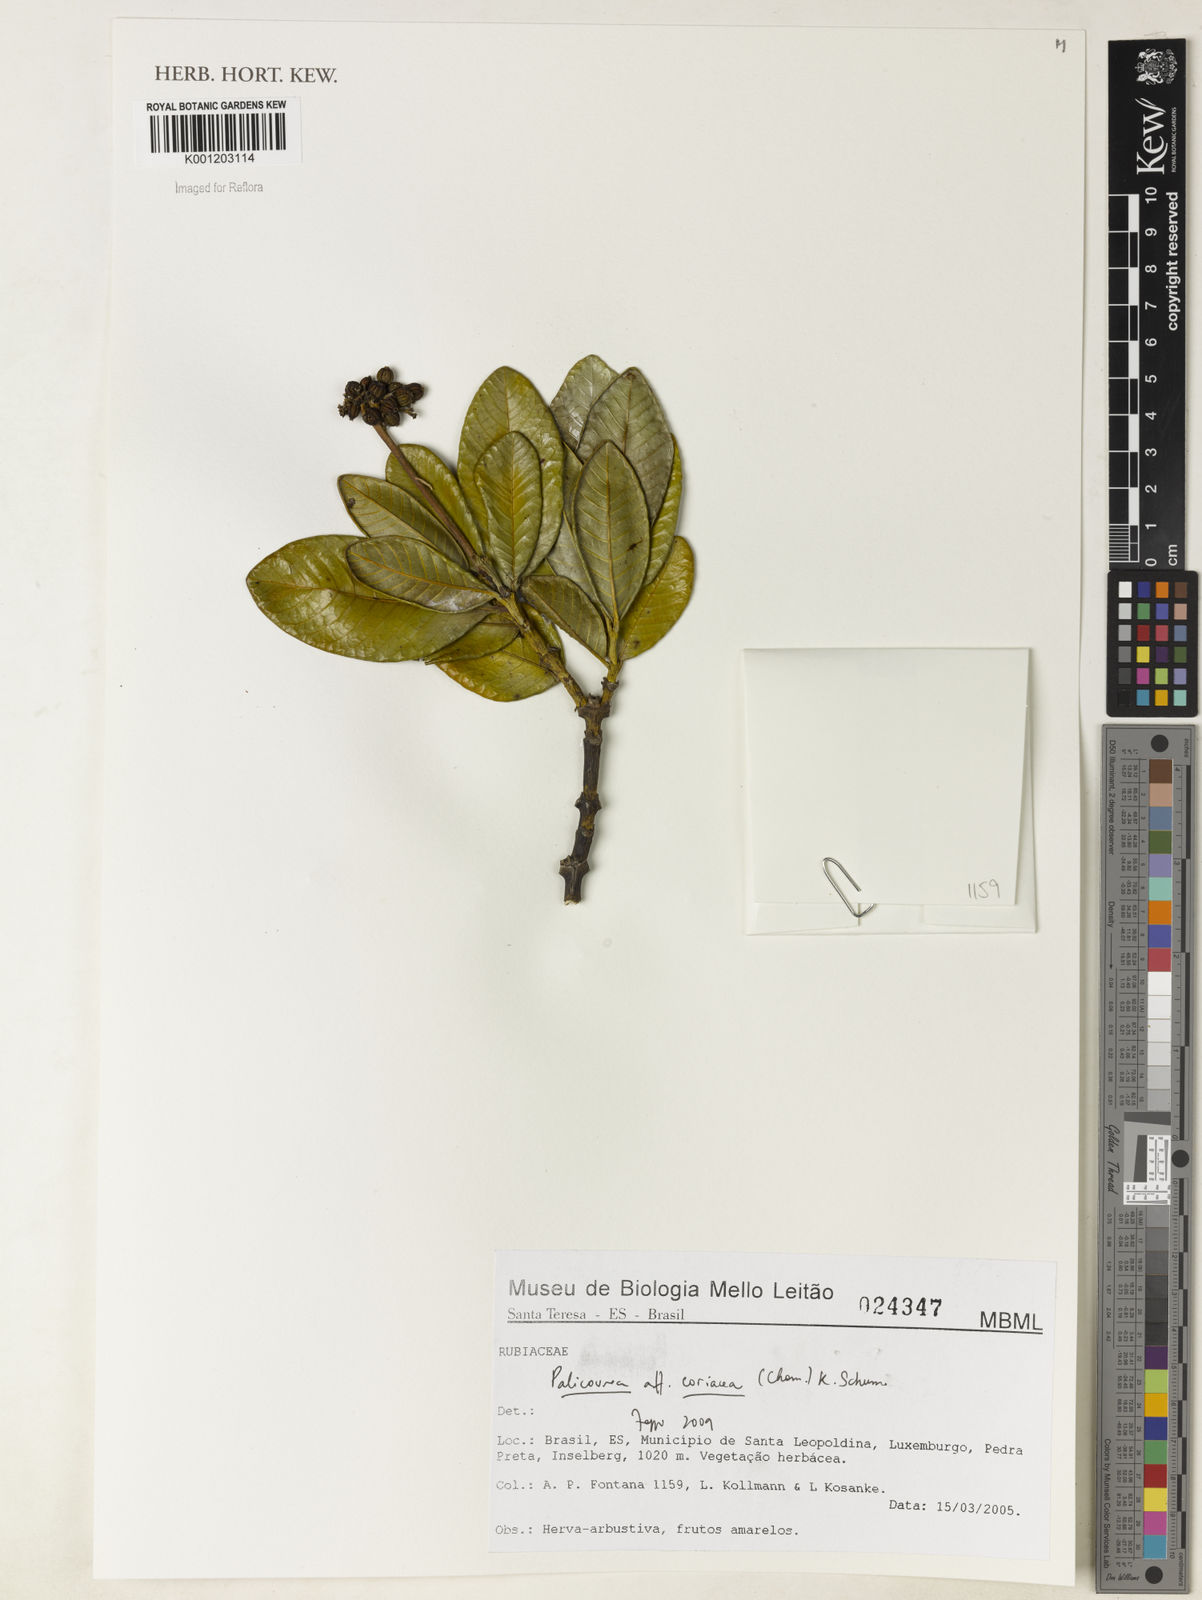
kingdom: Plantae
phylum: Tracheophyta
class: Magnoliopsida
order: Gentianales
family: Rubiaceae
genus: Palicourea
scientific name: Palicourea coriacea
